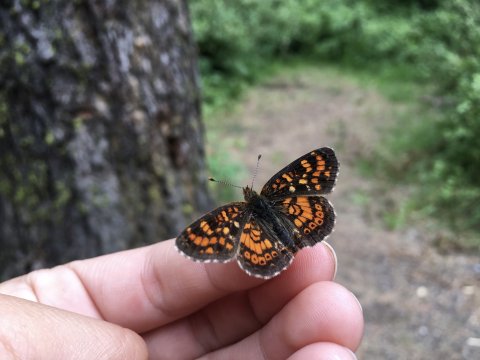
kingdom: Animalia
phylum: Arthropoda
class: Insecta
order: Lepidoptera
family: Nymphalidae
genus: Phyciodes
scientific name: Phyciodes tharos
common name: Field Crescent
